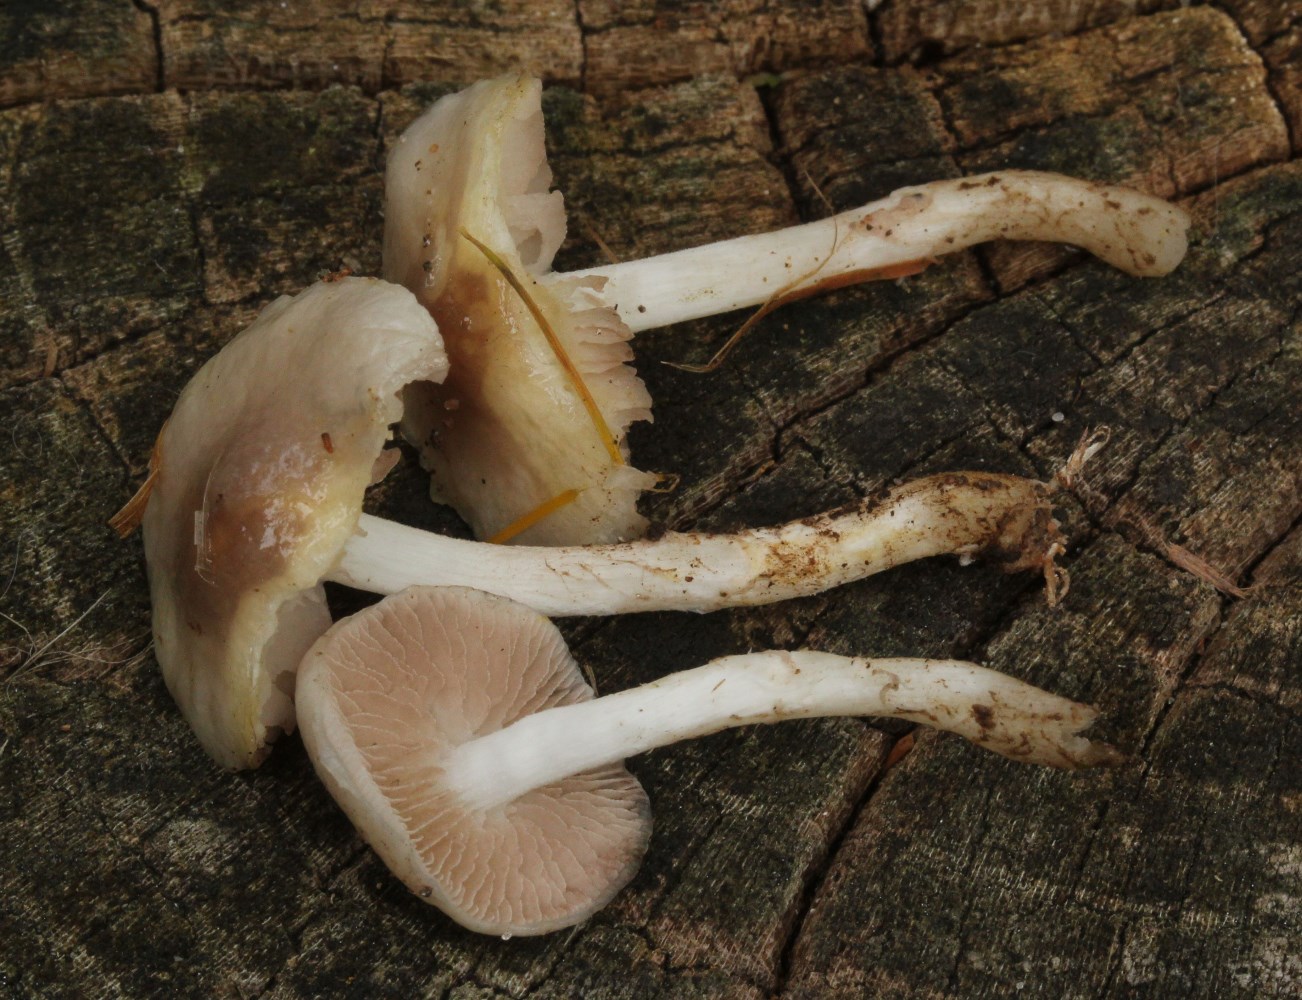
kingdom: Fungi
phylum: Basidiomycota
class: Agaricomycetes
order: Agaricales
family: Strophariaceae
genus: Stropharia
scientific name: Stropharia inuncta
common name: lillabrun bredblad
